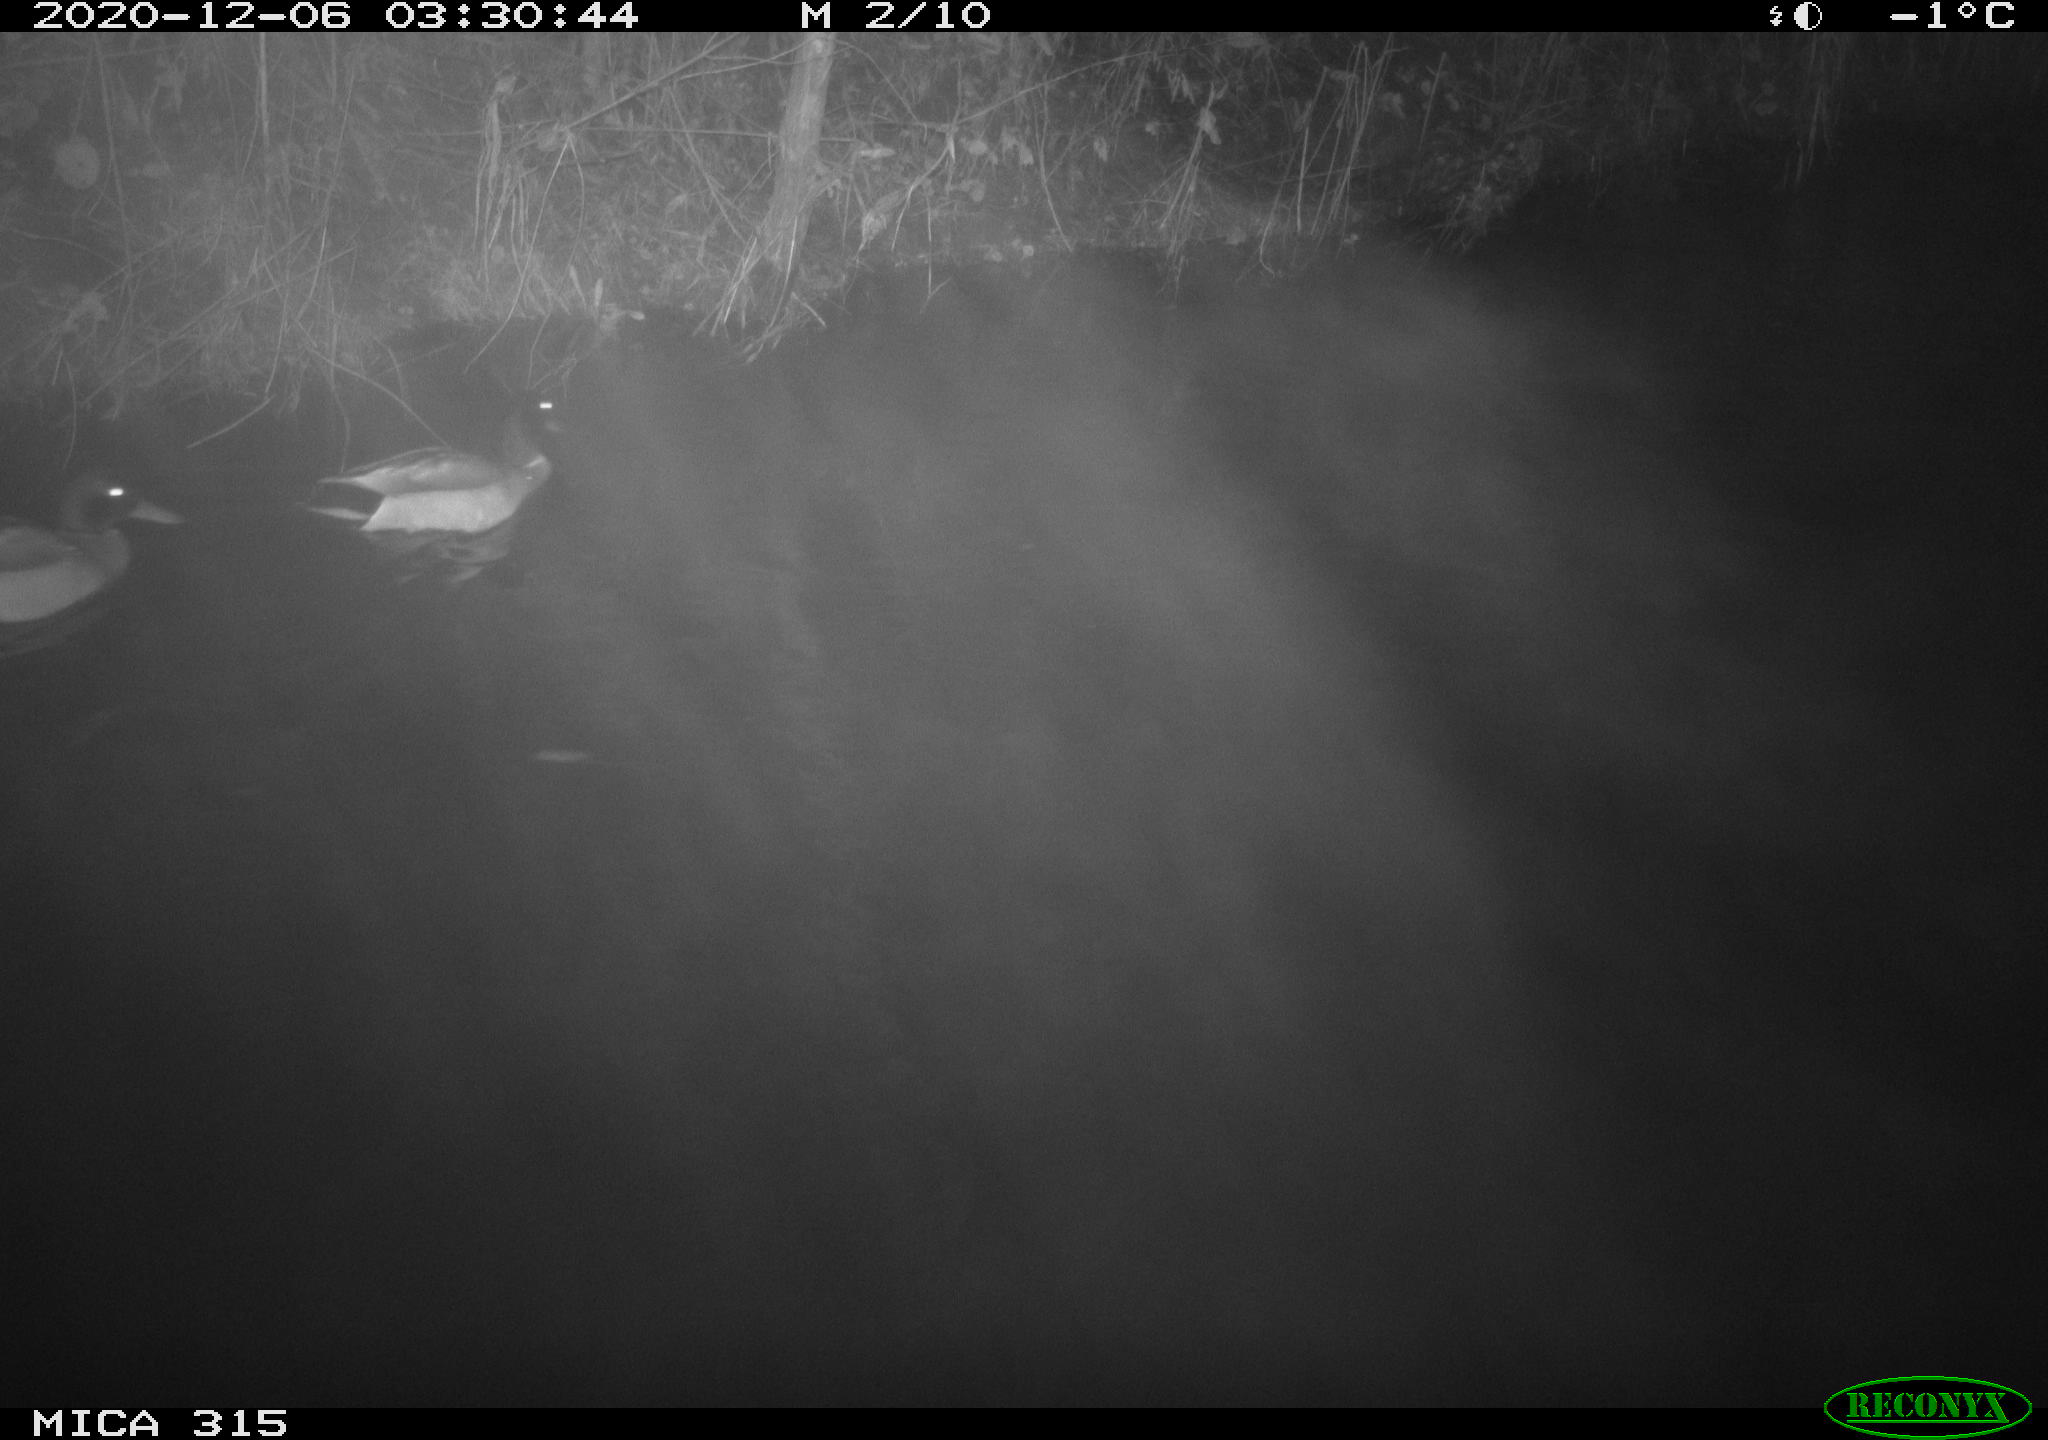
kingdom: Animalia
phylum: Chordata
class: Aves
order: Anseriformes
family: Anatidae
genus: Anas
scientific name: Anas platyrhynchos
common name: Mallard
